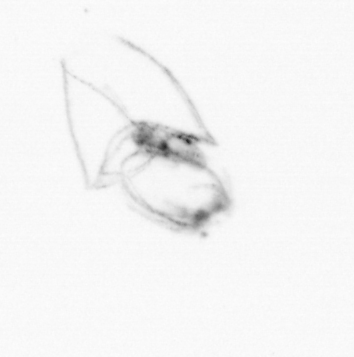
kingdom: Animalia
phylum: Arthropoda
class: Maxillopoda
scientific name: Maxillopoda
